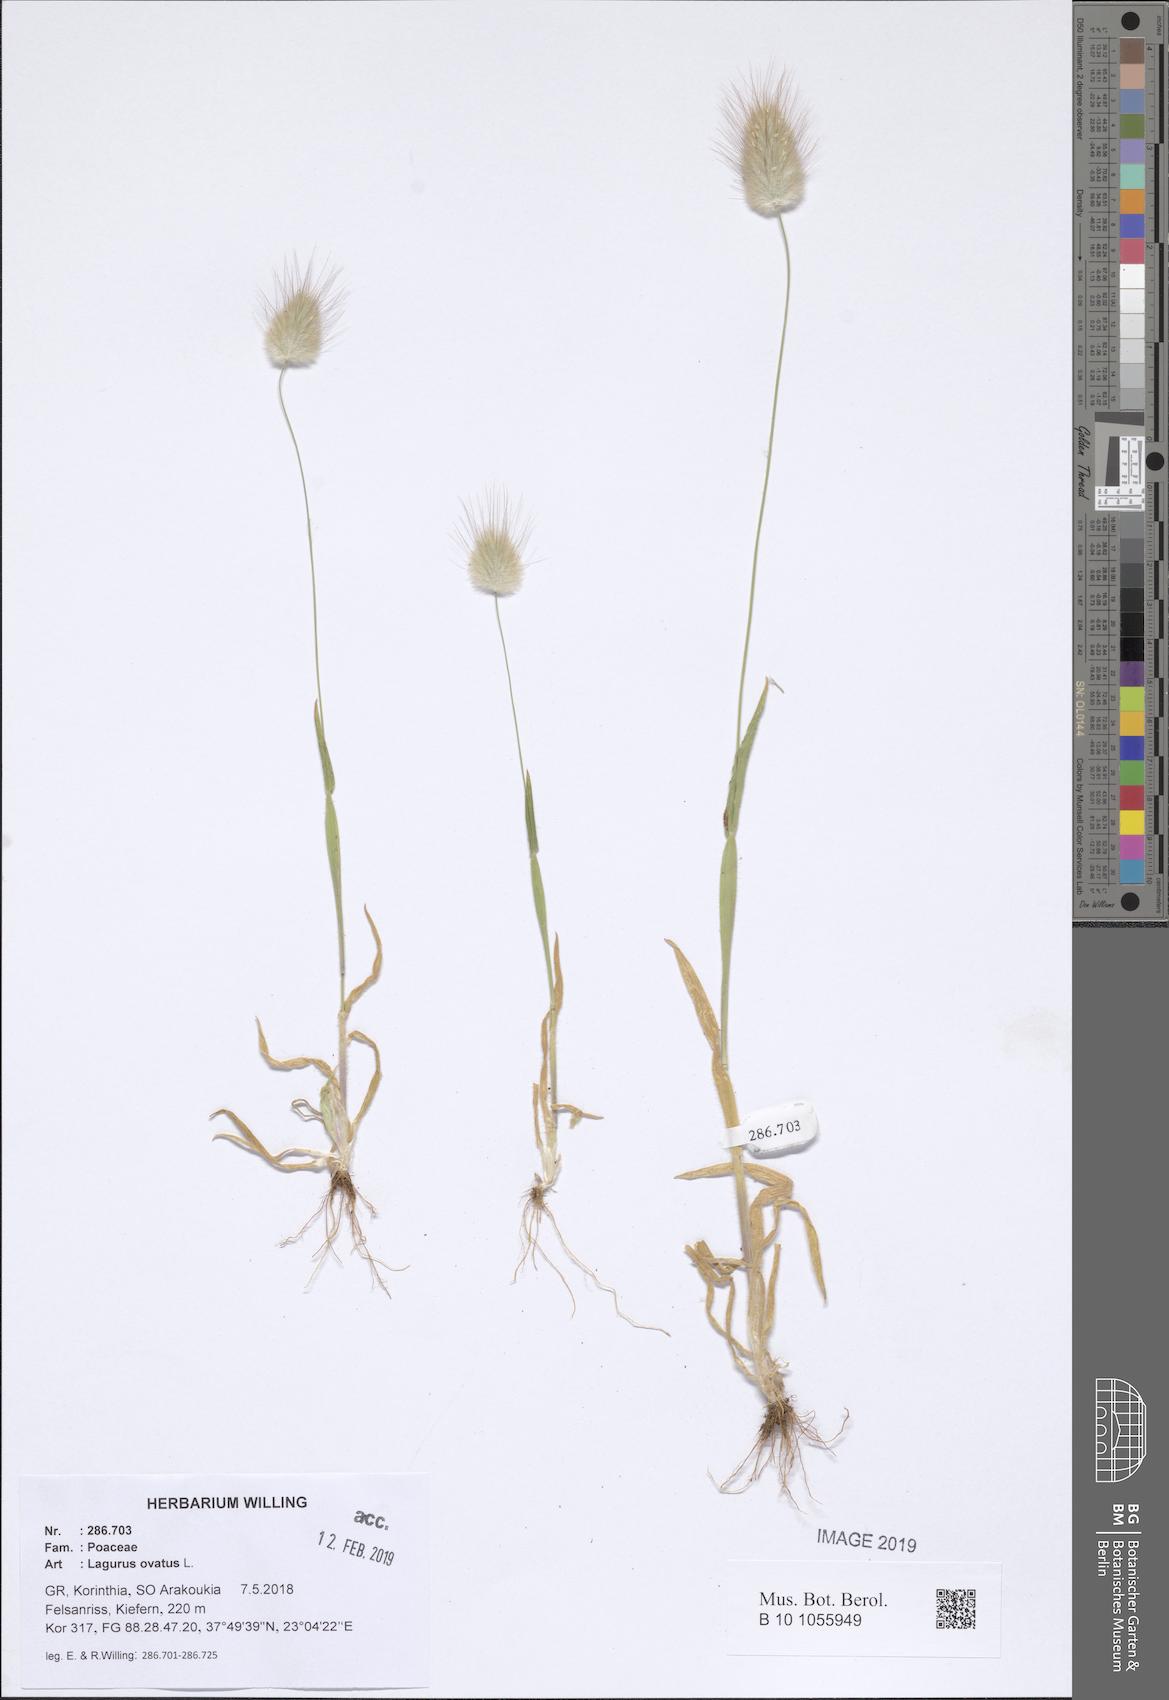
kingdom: Plantae
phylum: Tracheophyta
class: Liliopsida
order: Poales
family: Poaceae
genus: Lagurus
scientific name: Lagurus ovatus
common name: Hare's-tail
